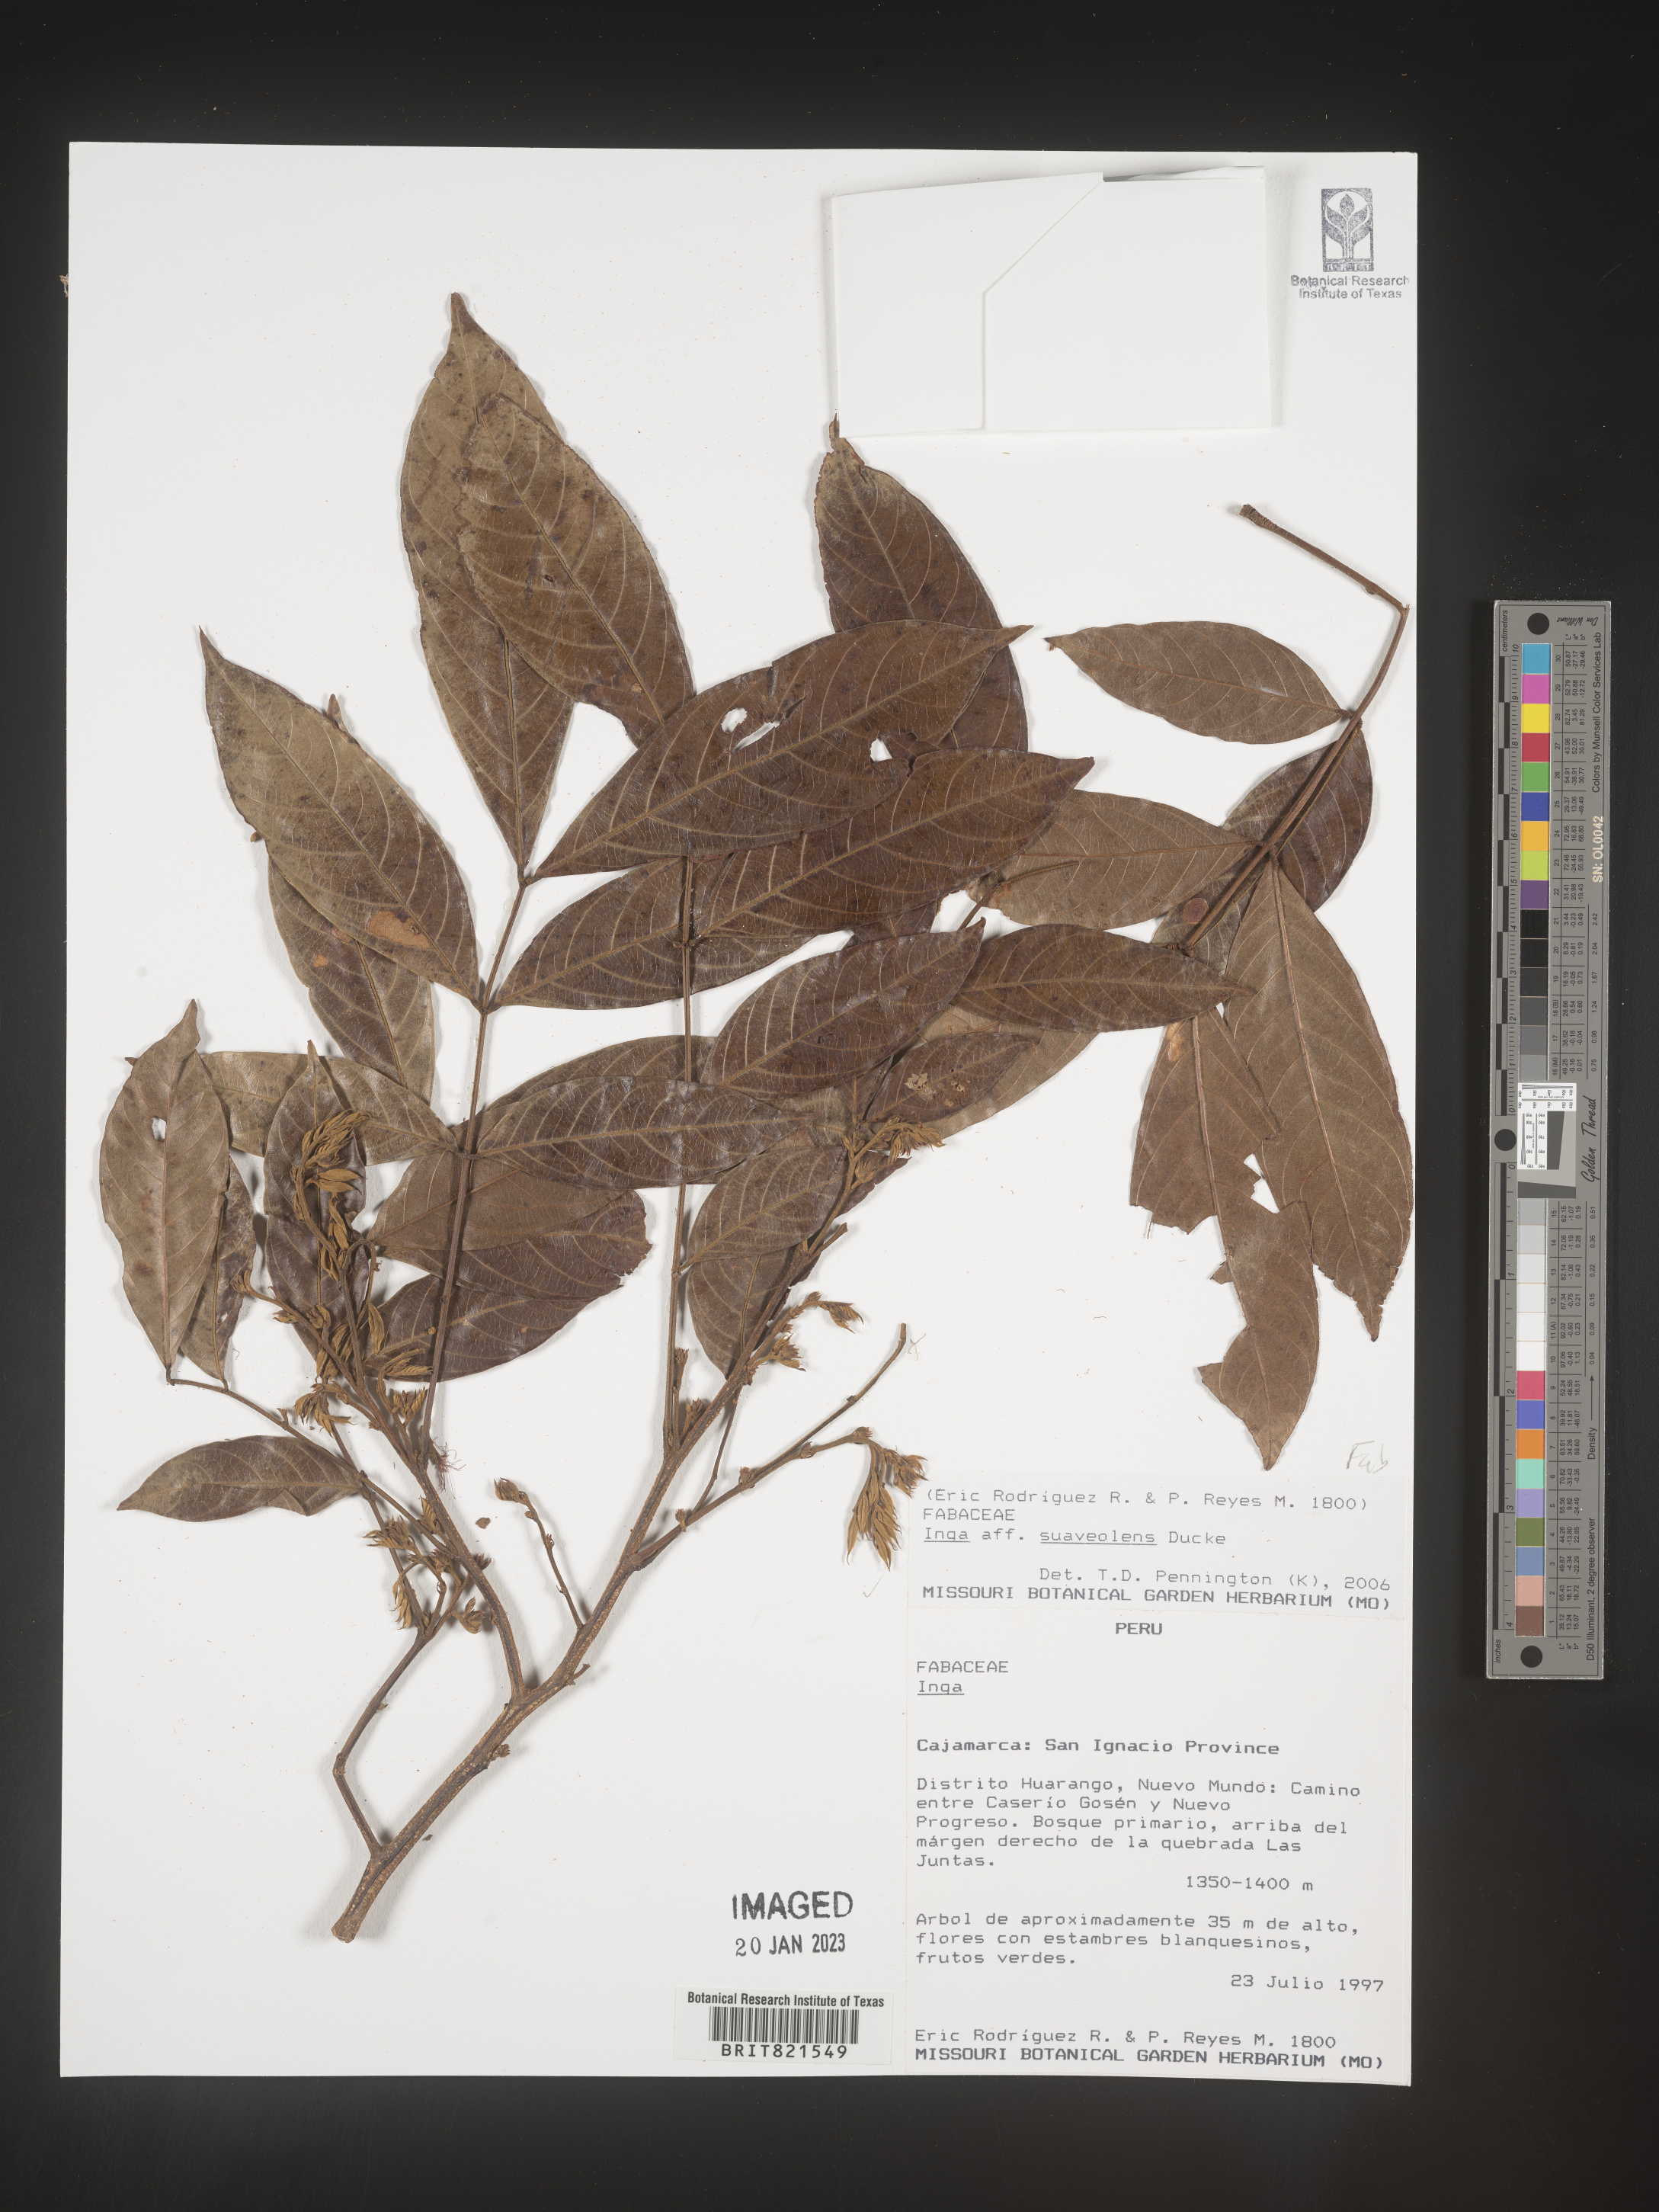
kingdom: Plantae
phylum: Tracheophyta
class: Magnoliopsida
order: Fabales
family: Fabaceae
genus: Inga
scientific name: Inga
